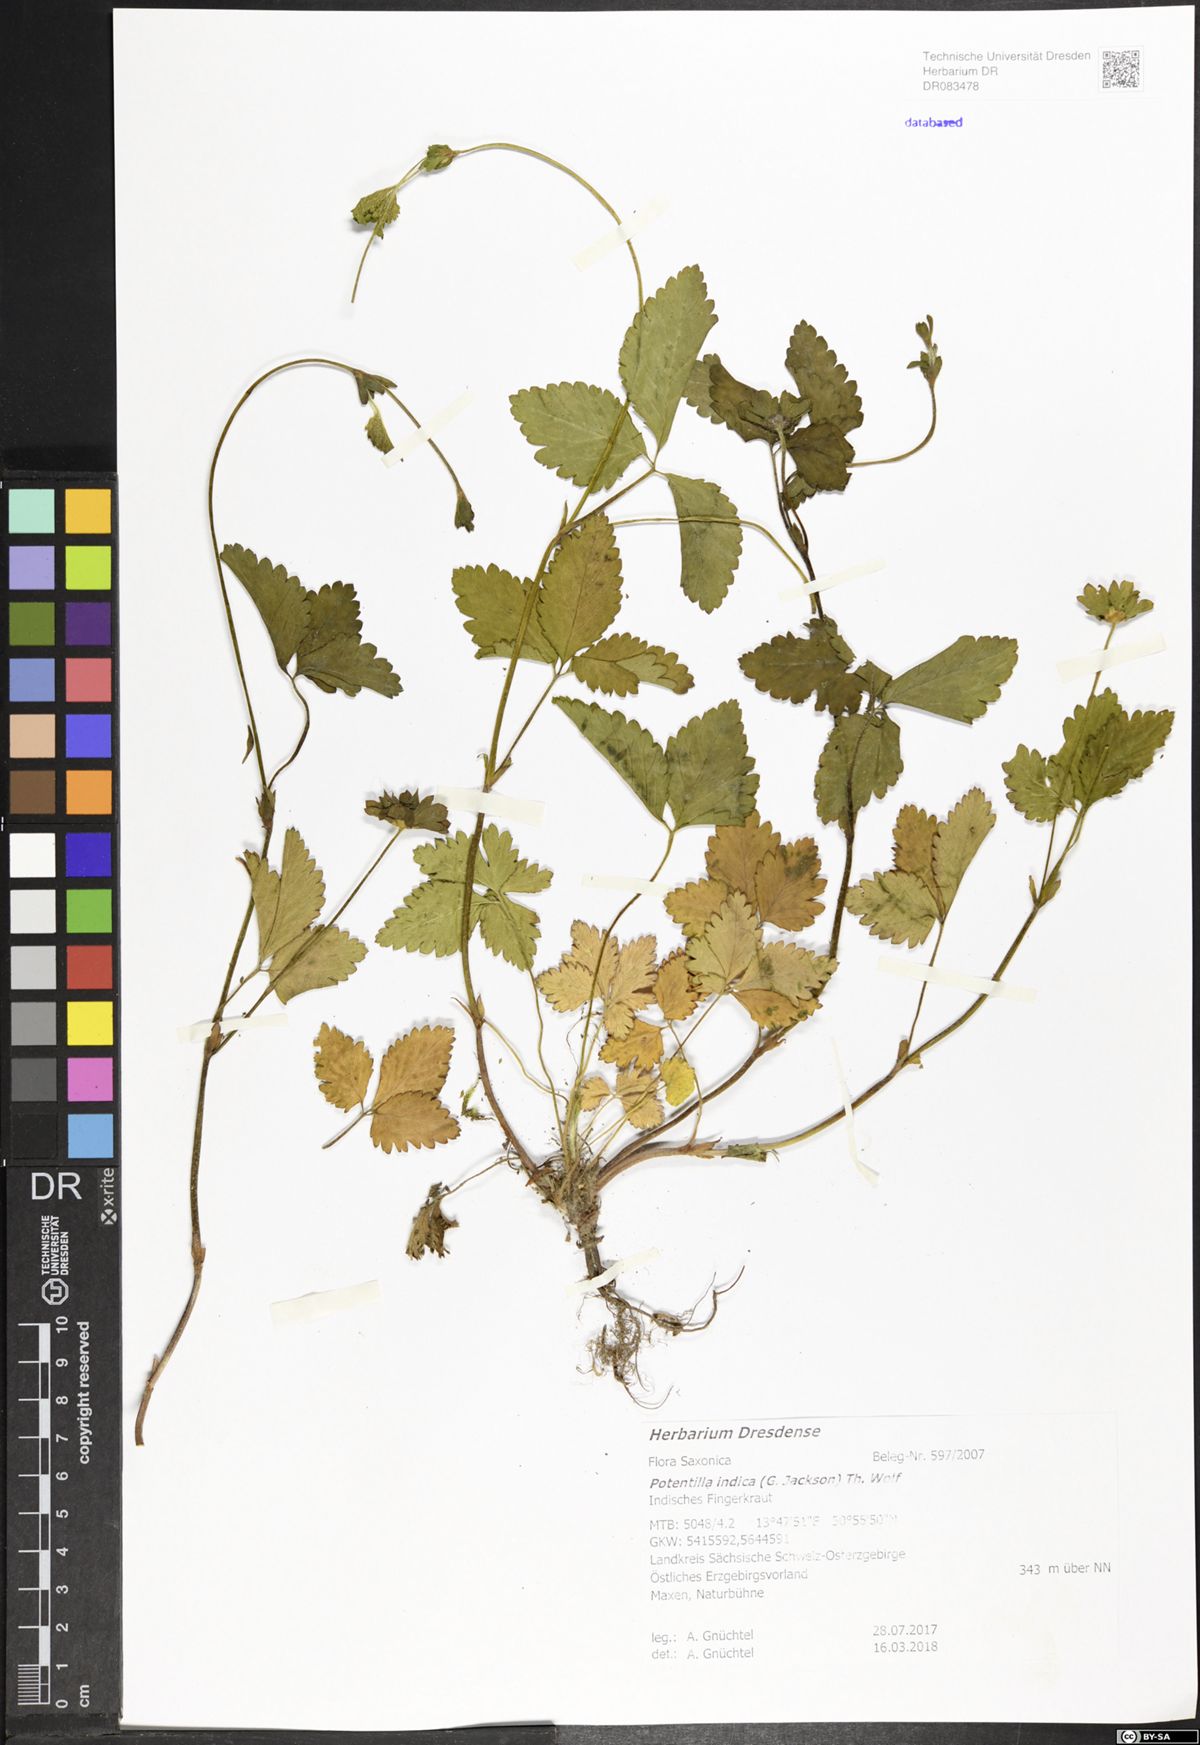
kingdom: Plantae
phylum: Tracheophyta
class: Magnoliopsida
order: Rosales
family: Rosaceae
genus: Potentilla
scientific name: Potentilla indica
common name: Yellow-flowered strawberry
